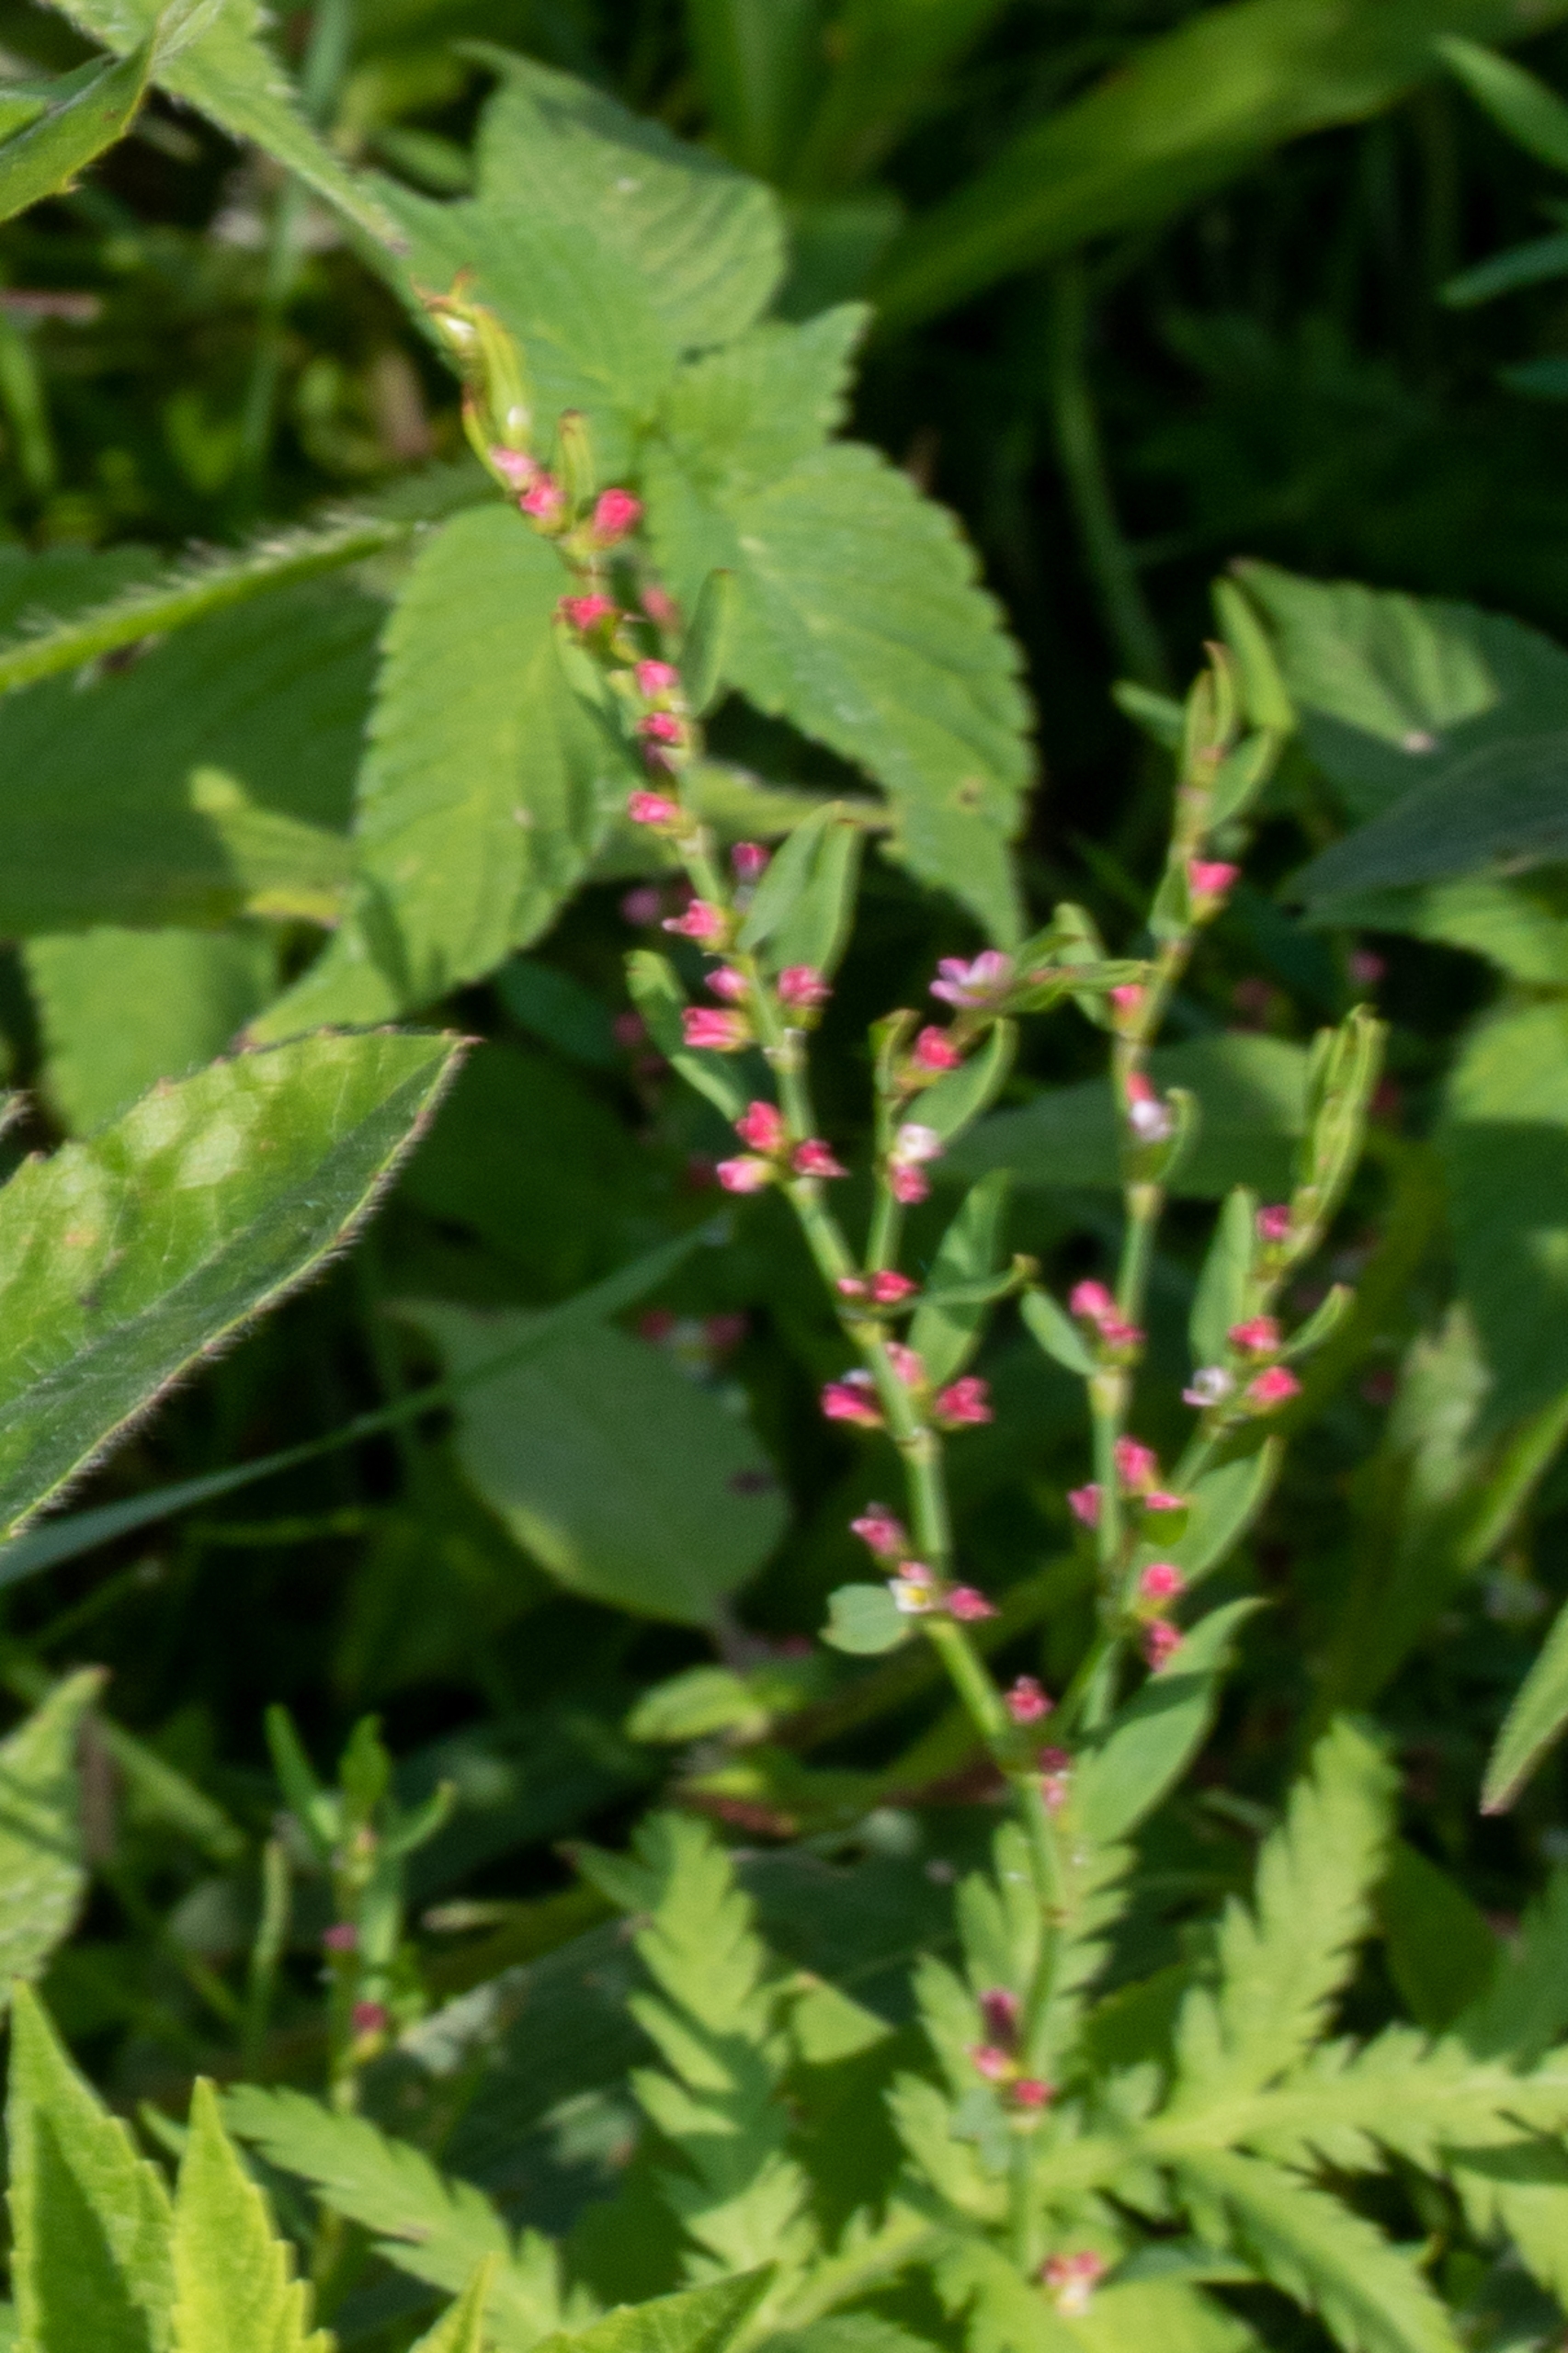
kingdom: Plantae
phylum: Tracheophyta
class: Magnoliopsida
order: Caryophyllales
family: Polygonaceae
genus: Polygonum
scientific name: Polygonum aviculare
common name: Vej-pileurt
